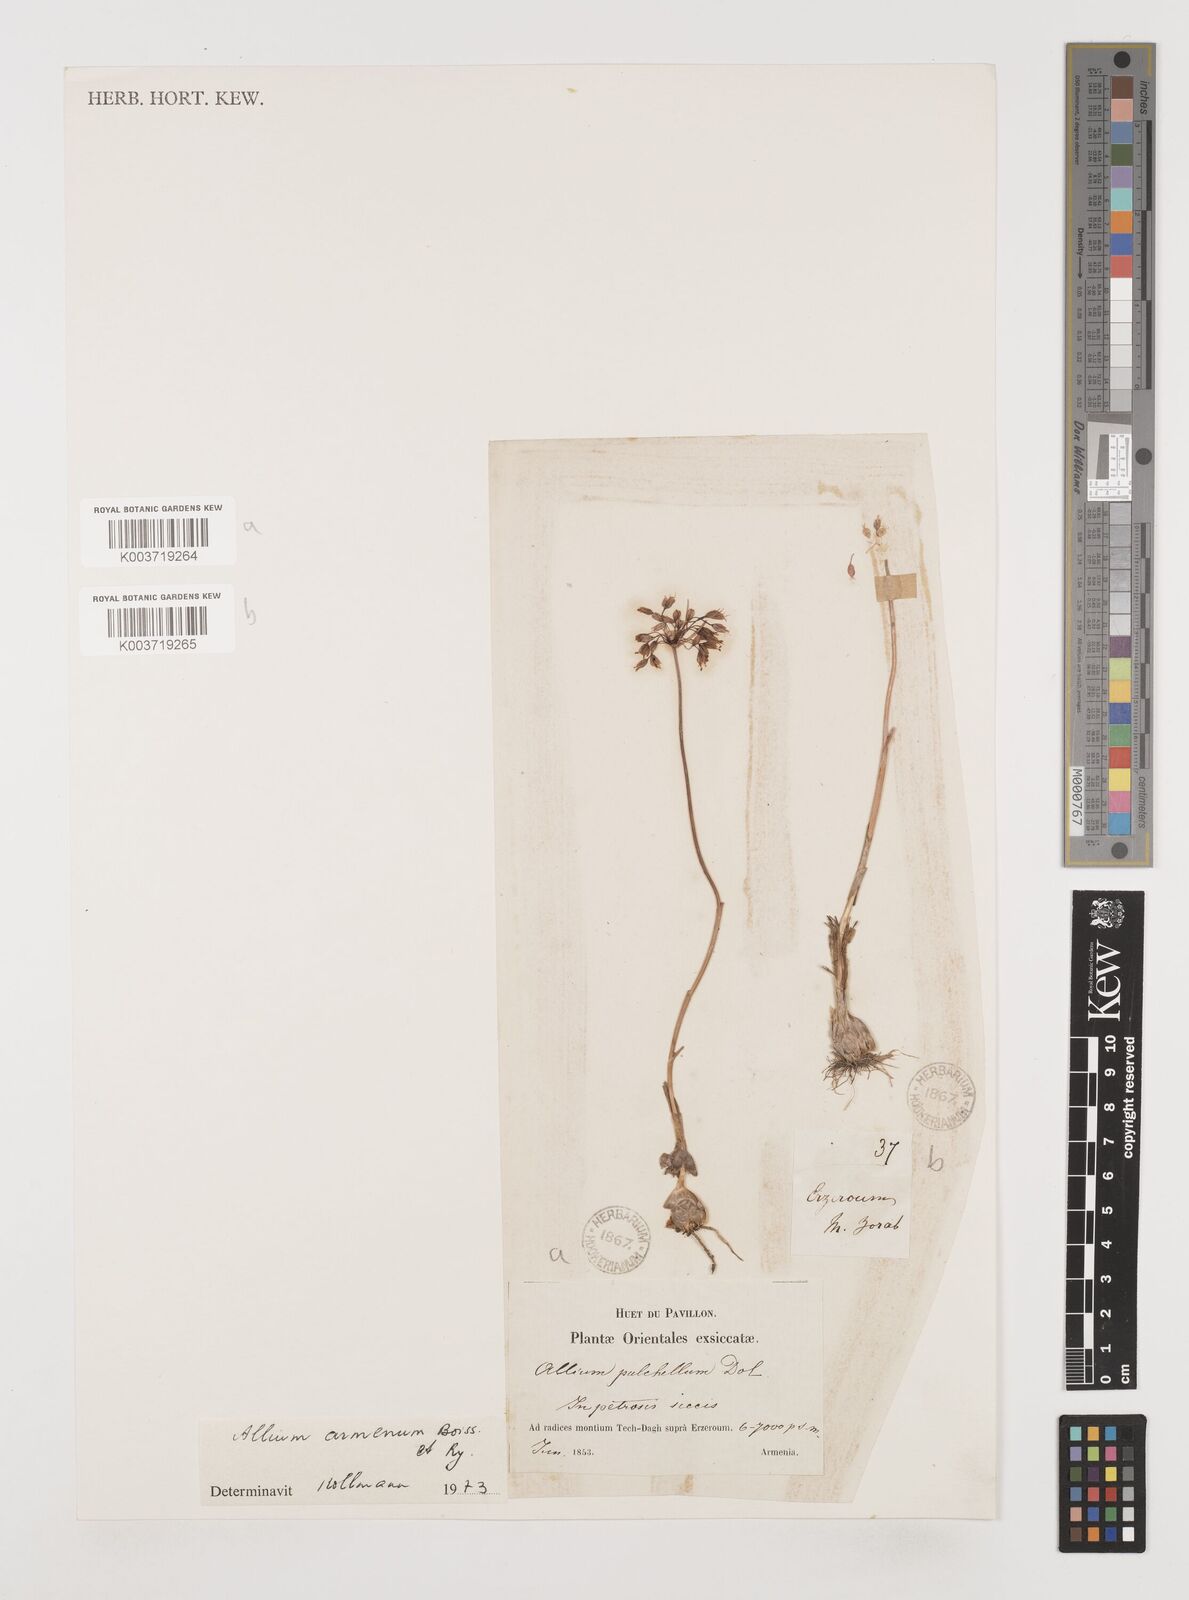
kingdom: Plantae
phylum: Tracheophyta
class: Liliopsida
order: Asparagales
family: Amaryllidaceae
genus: Allium
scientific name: Allium armenum
